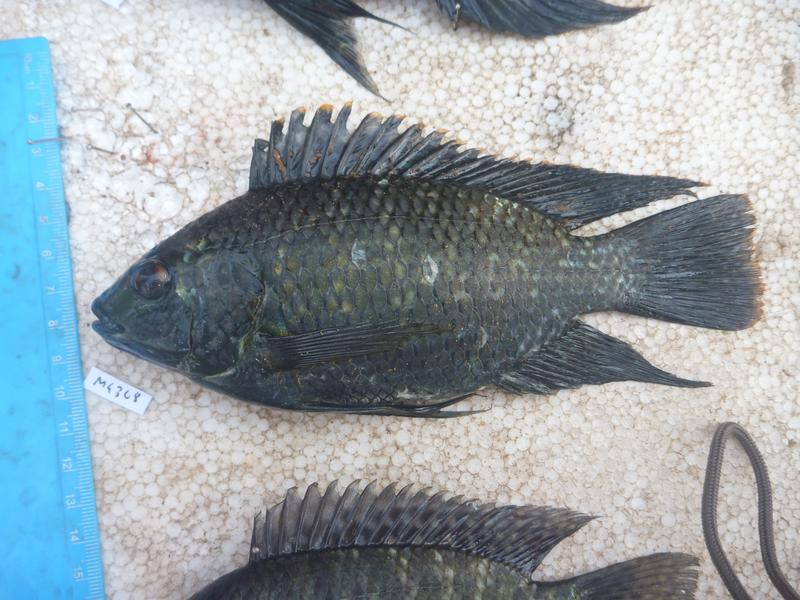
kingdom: Animalia
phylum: Chordata
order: Perciformes
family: Cichlidae
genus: Oreochromis
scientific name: Oreochromis leucostictus
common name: Blue spotted tilapia
